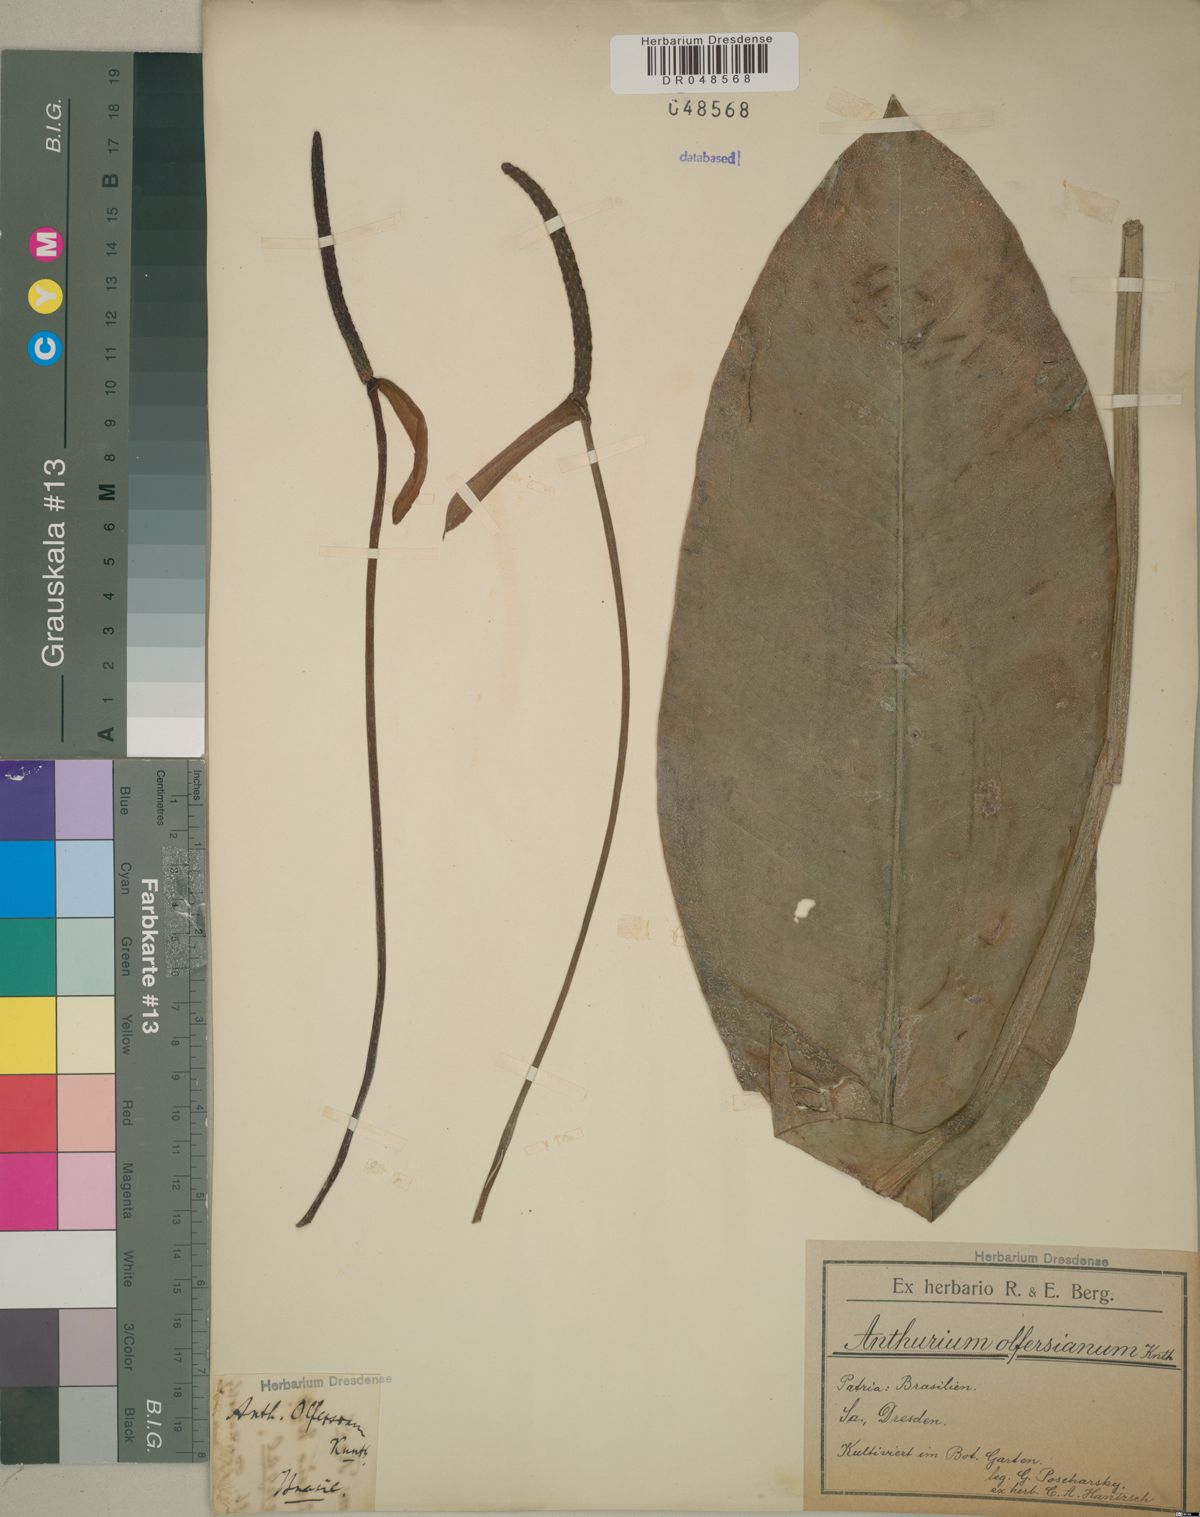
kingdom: Plantae
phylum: Tracheophyta
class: Liliopsida
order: Alismatales
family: Araceae
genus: Anthurium
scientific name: Anthurium parasiticum
